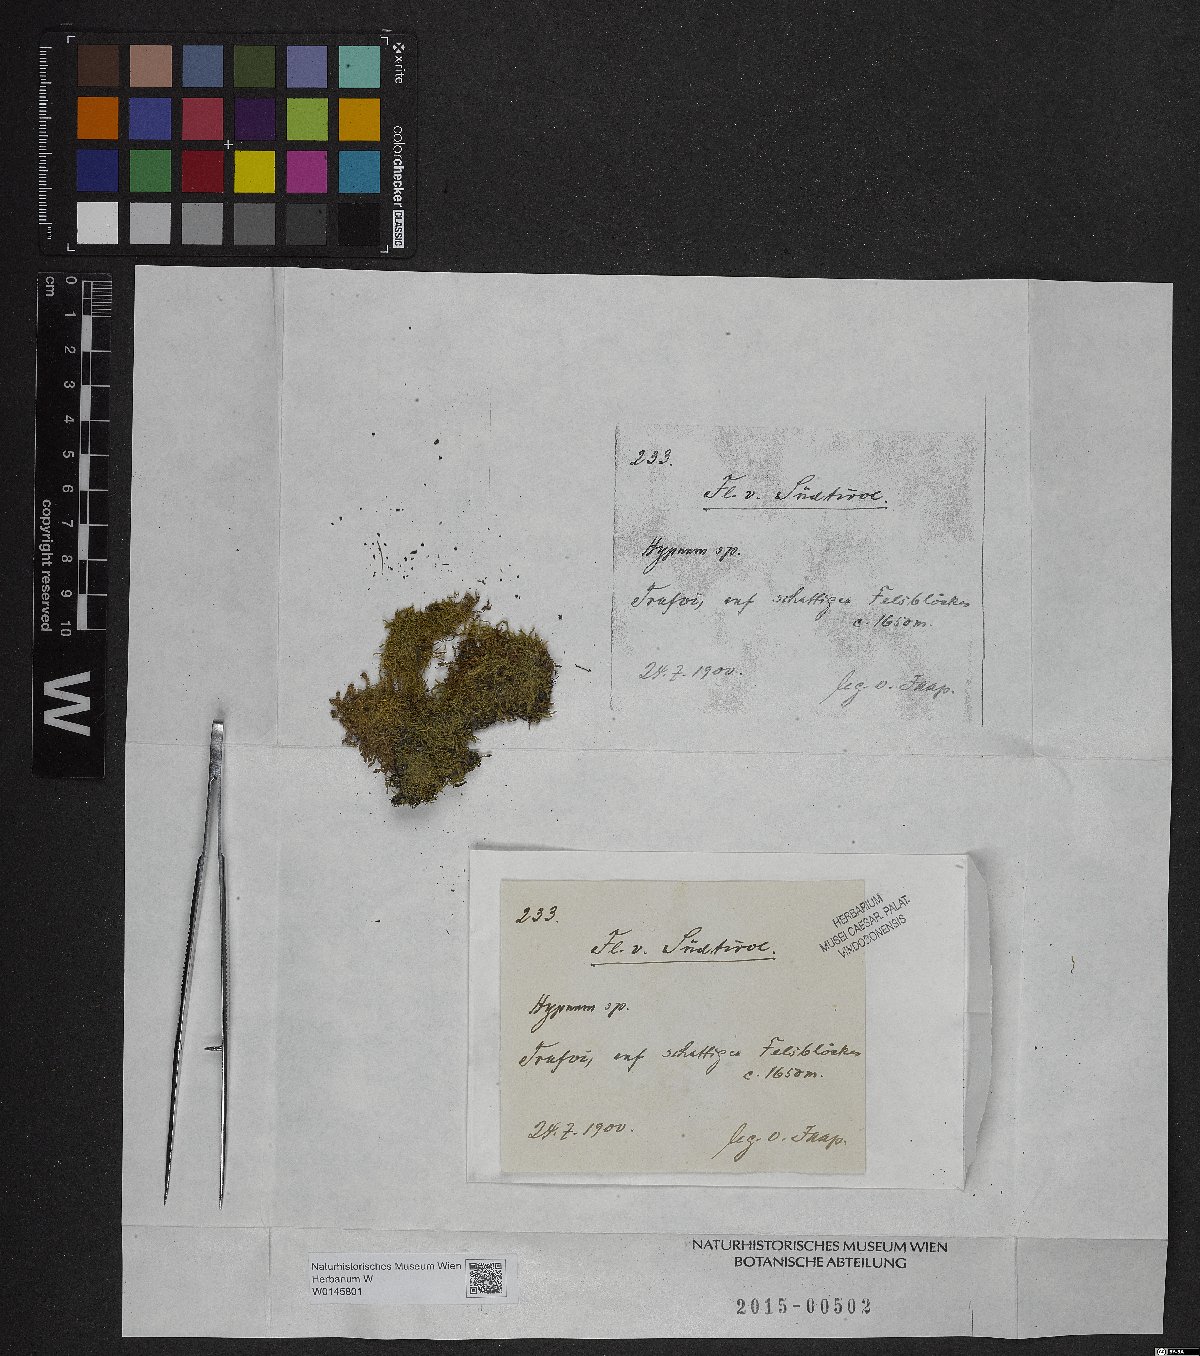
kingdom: Plantae
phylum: Bryophyta
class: Bryopsida
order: Hypnales
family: Hypnaceae
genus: Hypnum
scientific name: Hypnum
